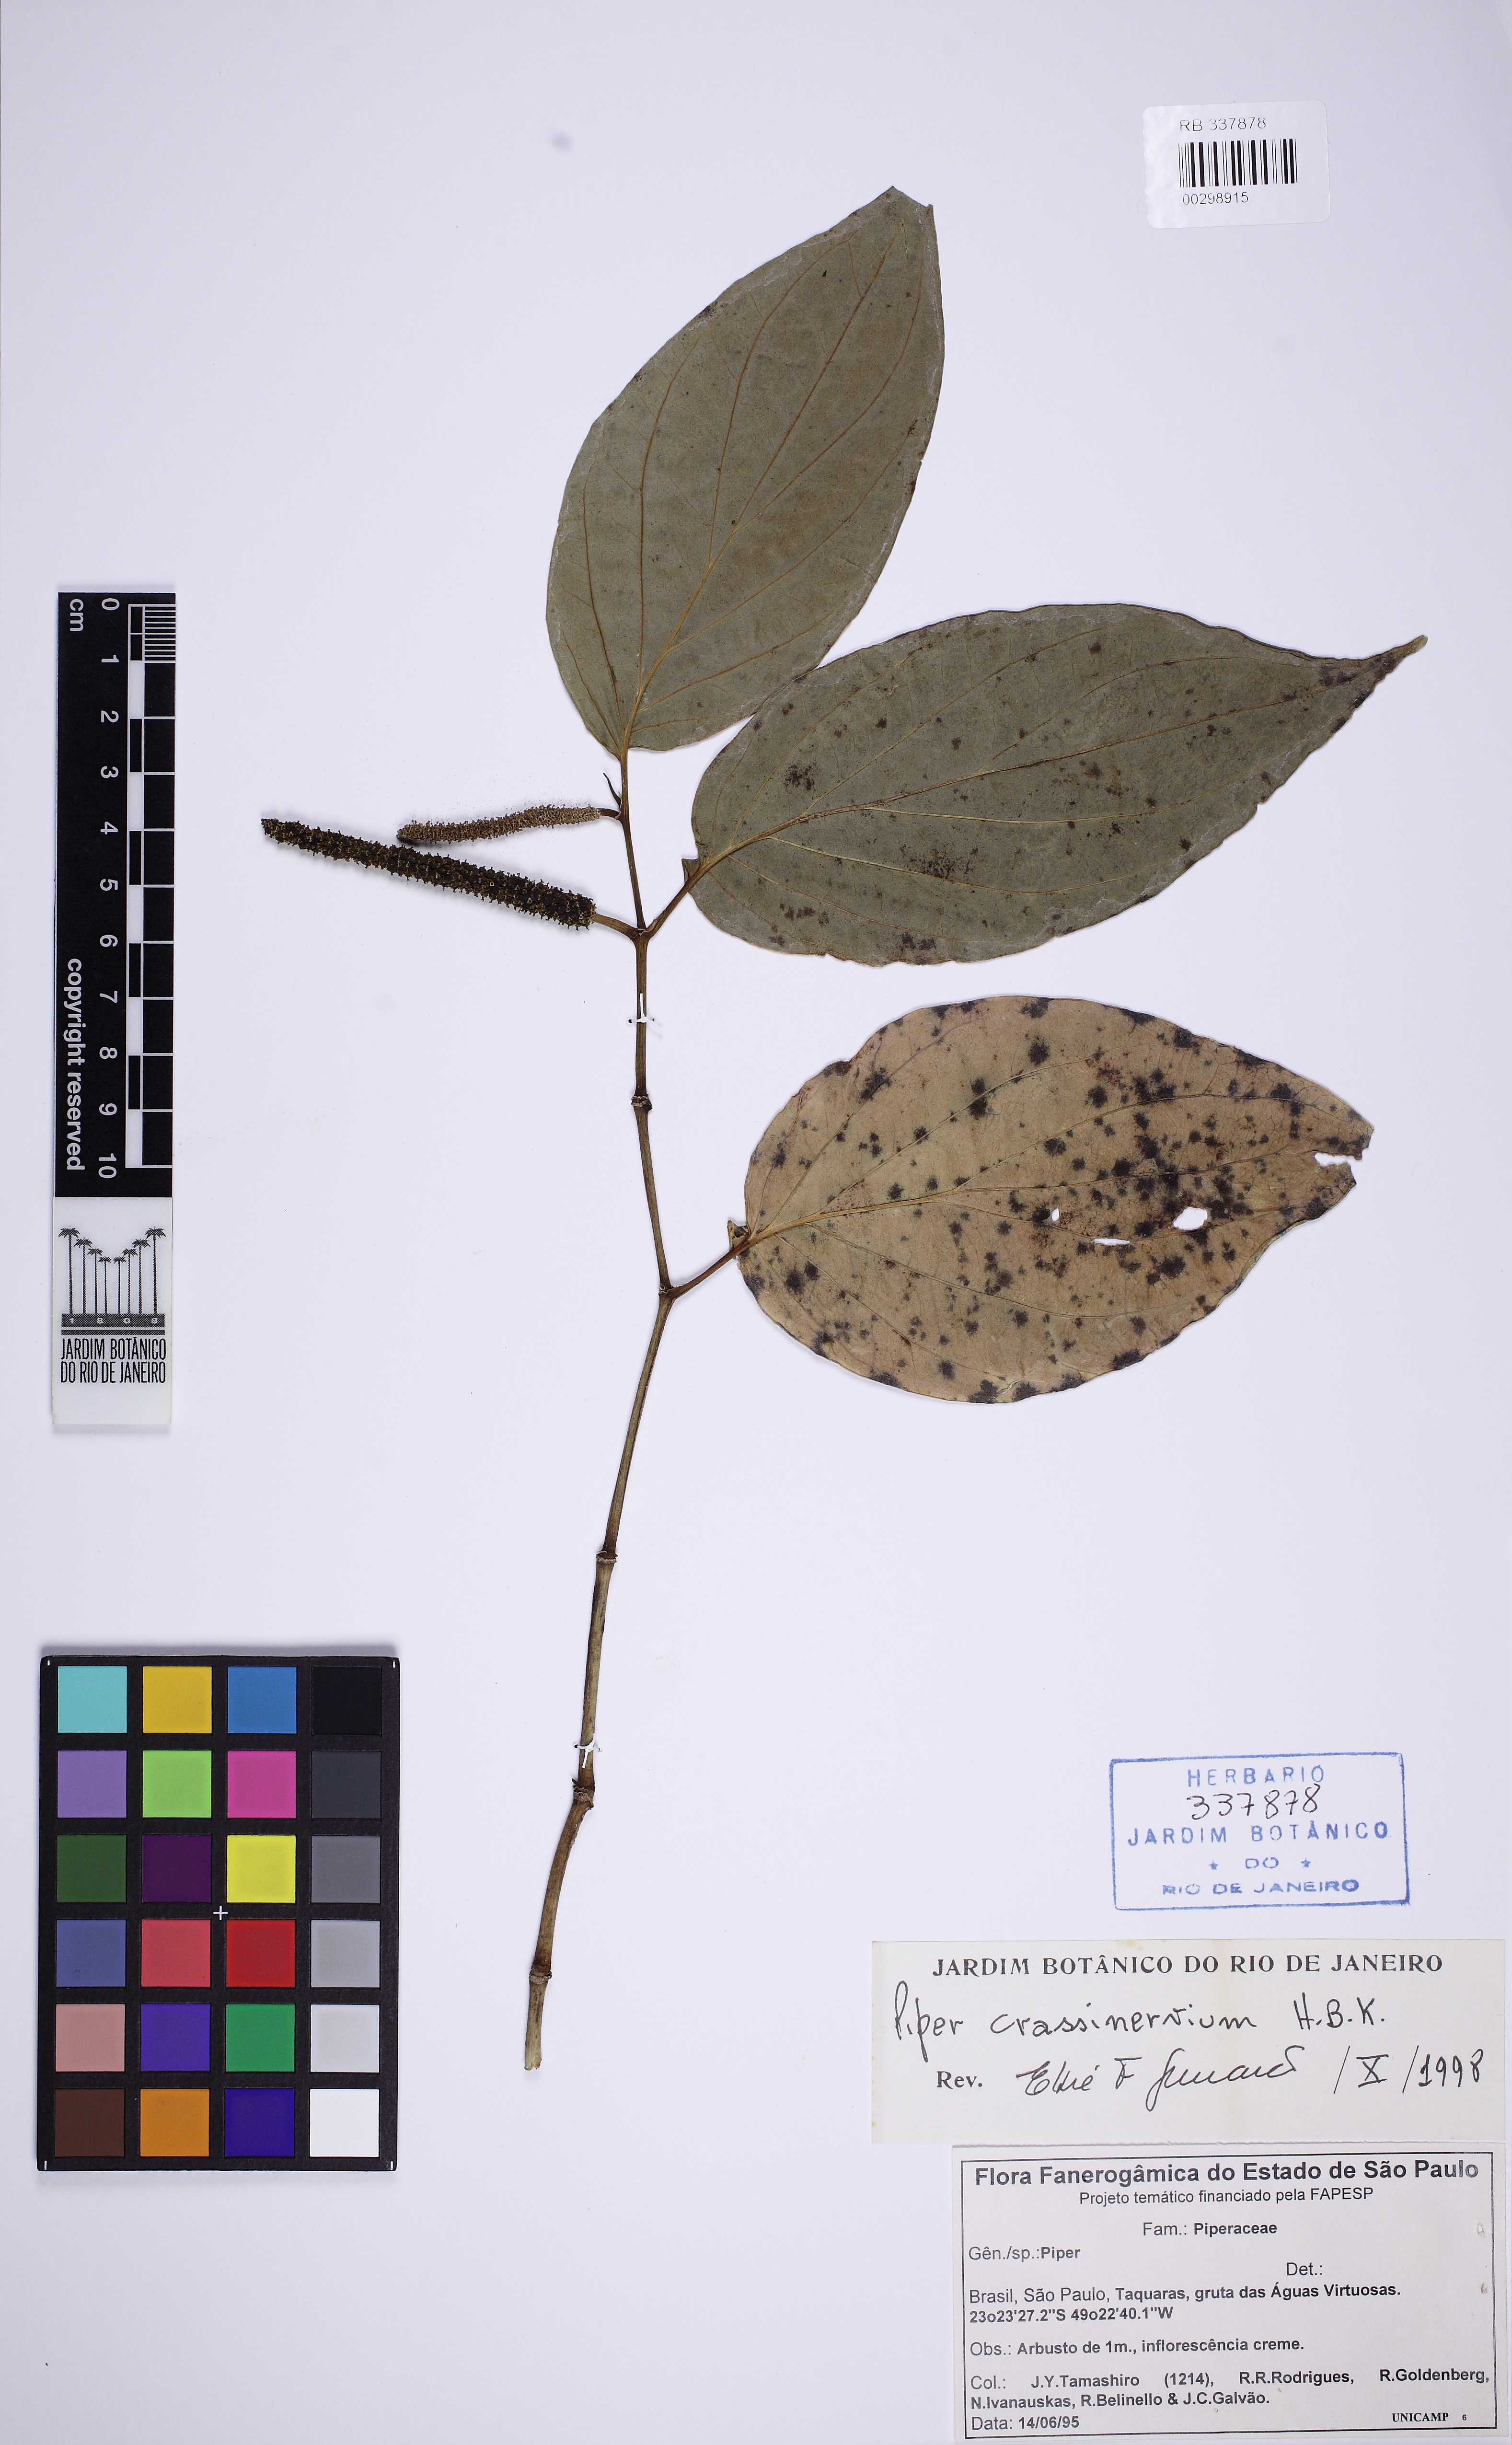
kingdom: Plantae
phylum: Tracheophyta
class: Magnoliopsida
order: Piperales
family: Piperaceae
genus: Piper
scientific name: Piper crassinervium
